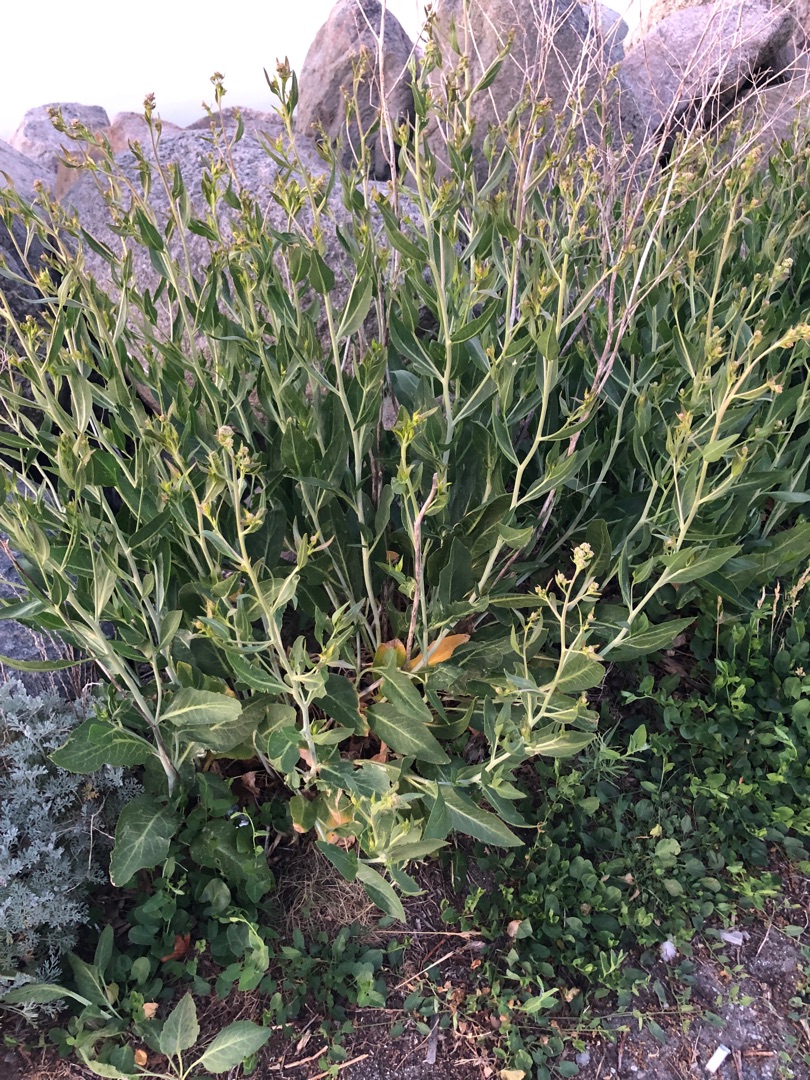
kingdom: Plantae
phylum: Tracheophyta
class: Magnoliopsida
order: Brassicales
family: Brassicaceae
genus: Lepidium
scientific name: Lepidium latifolium
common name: Strand-karse
